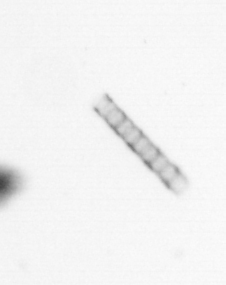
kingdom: Chromista
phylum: Ochrophyta
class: Bacillariophyceae
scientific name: Bacillariophyceae
